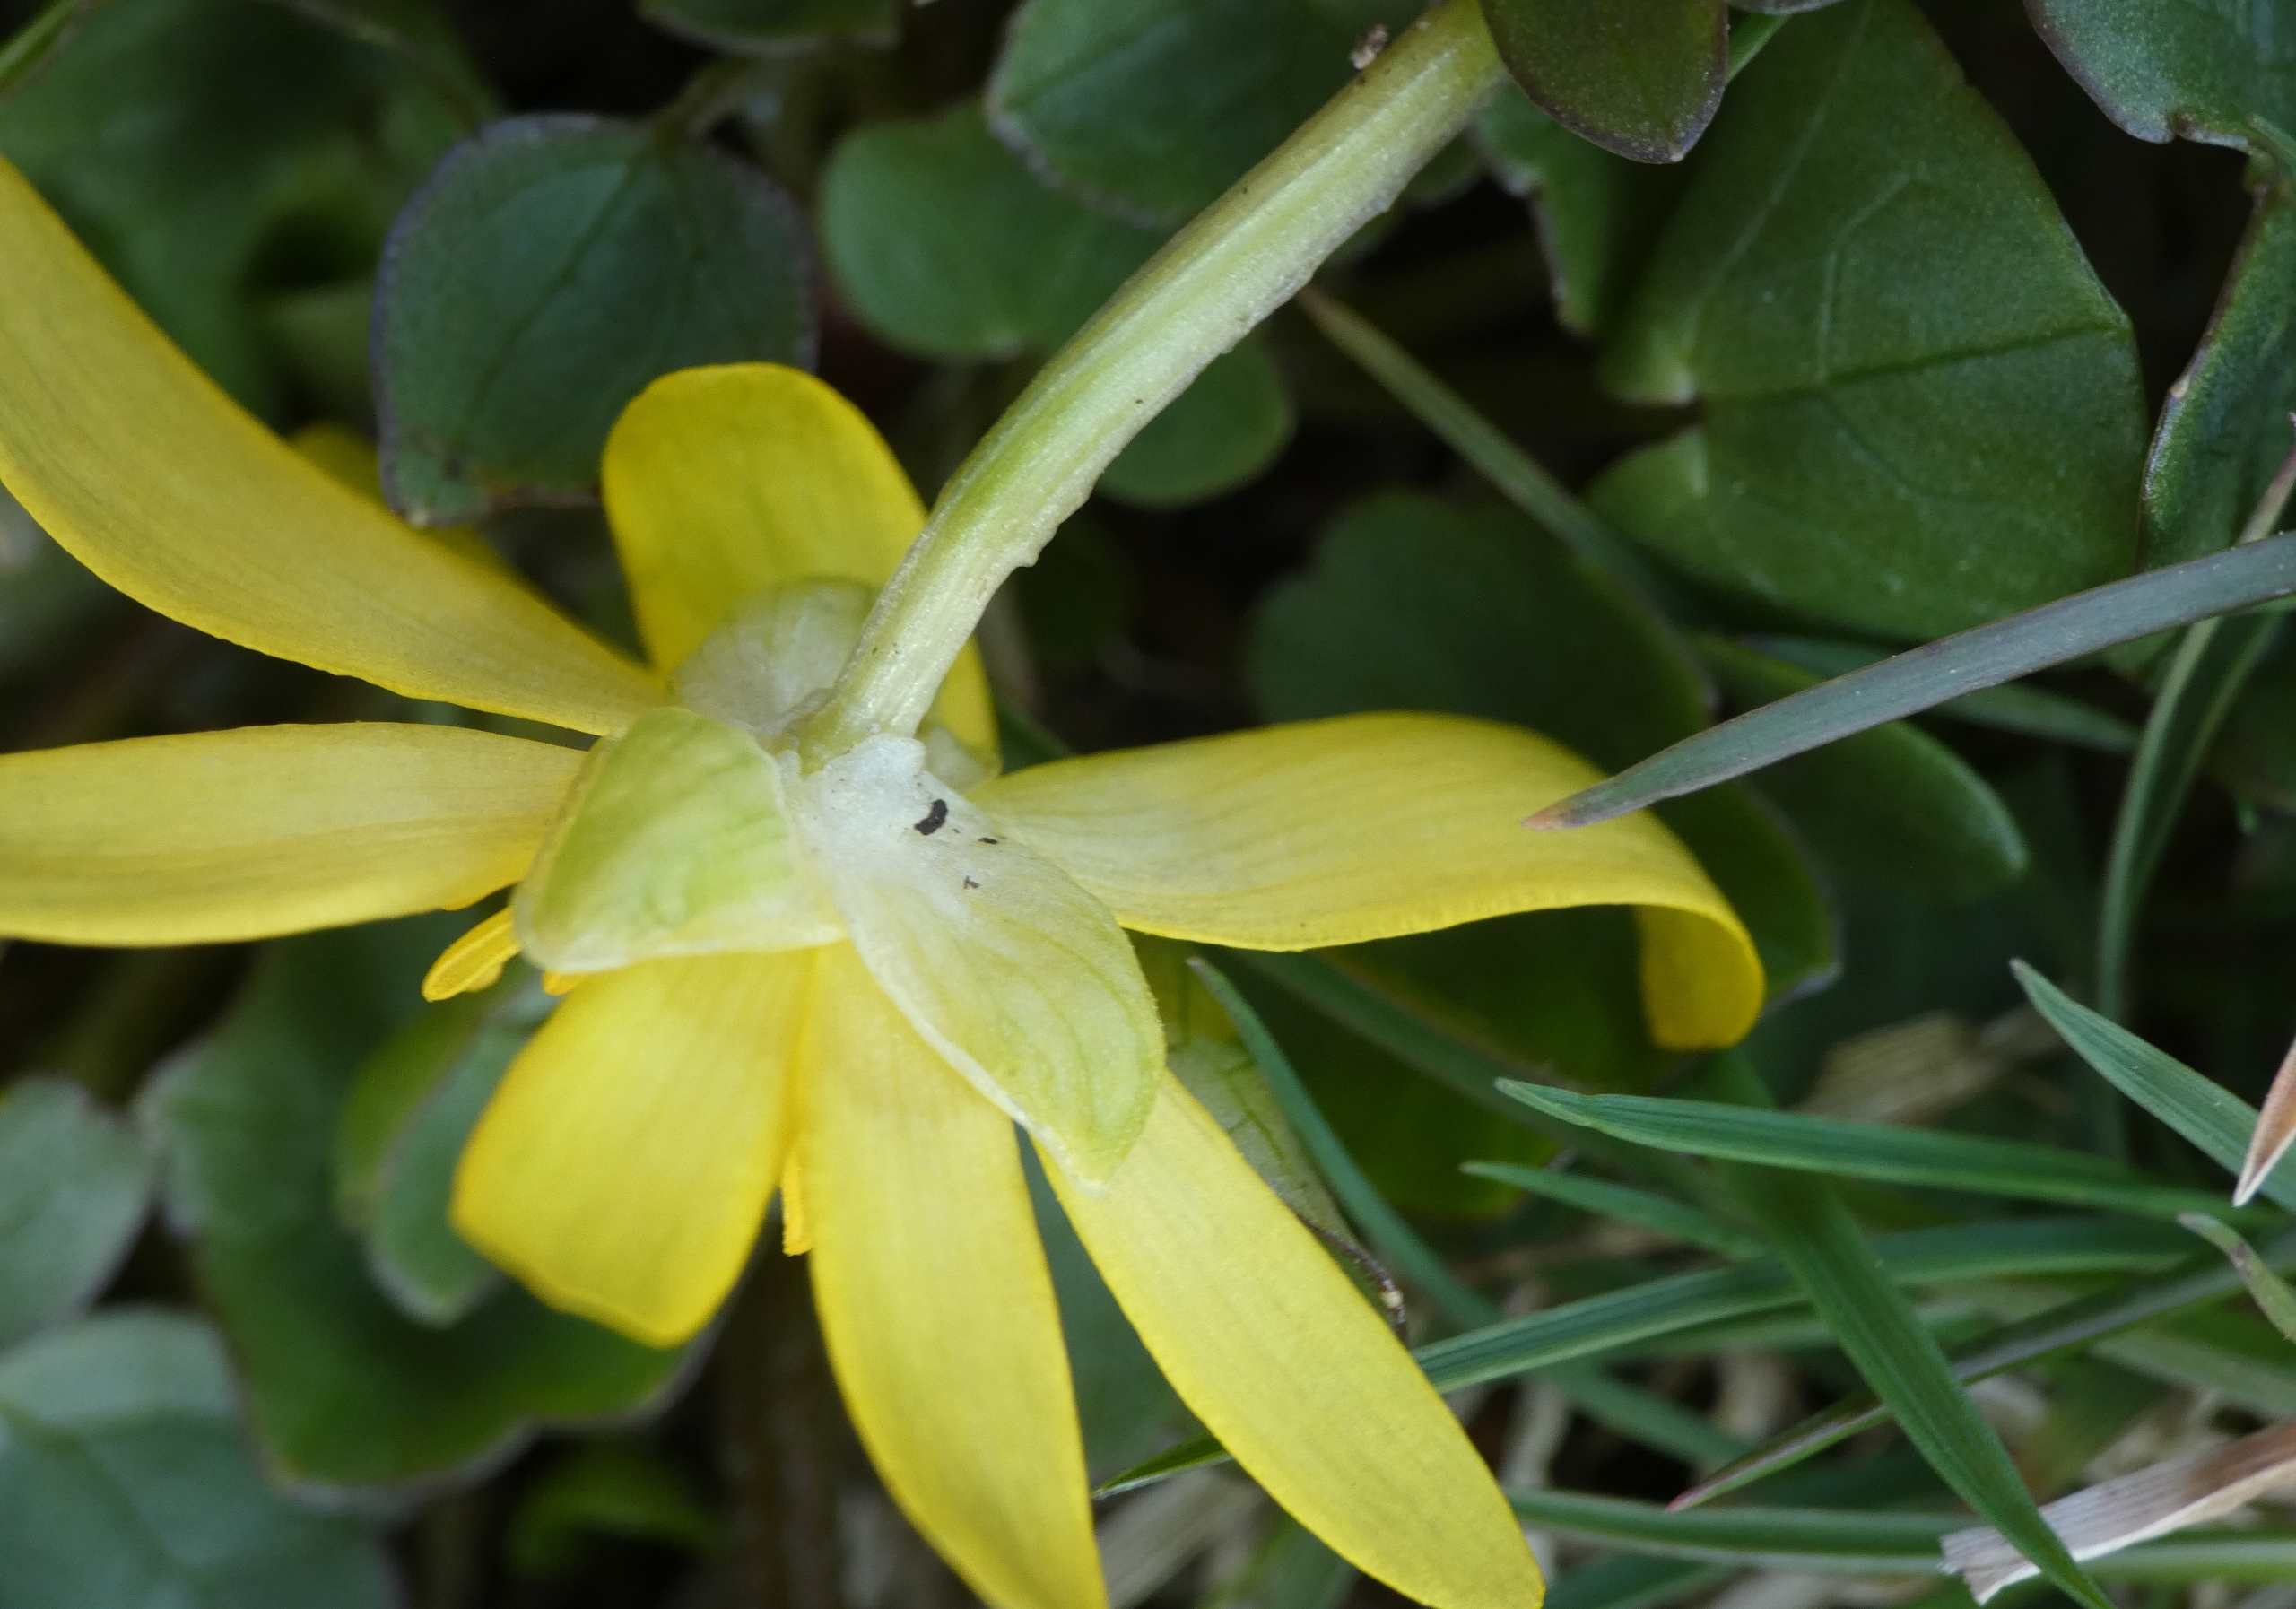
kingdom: Plantae
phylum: Tracheophyta
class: Magnoliopsida
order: Ranunculales
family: Ranunculaceae
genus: Ficaria
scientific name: Ficaria verna
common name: Vorterod
